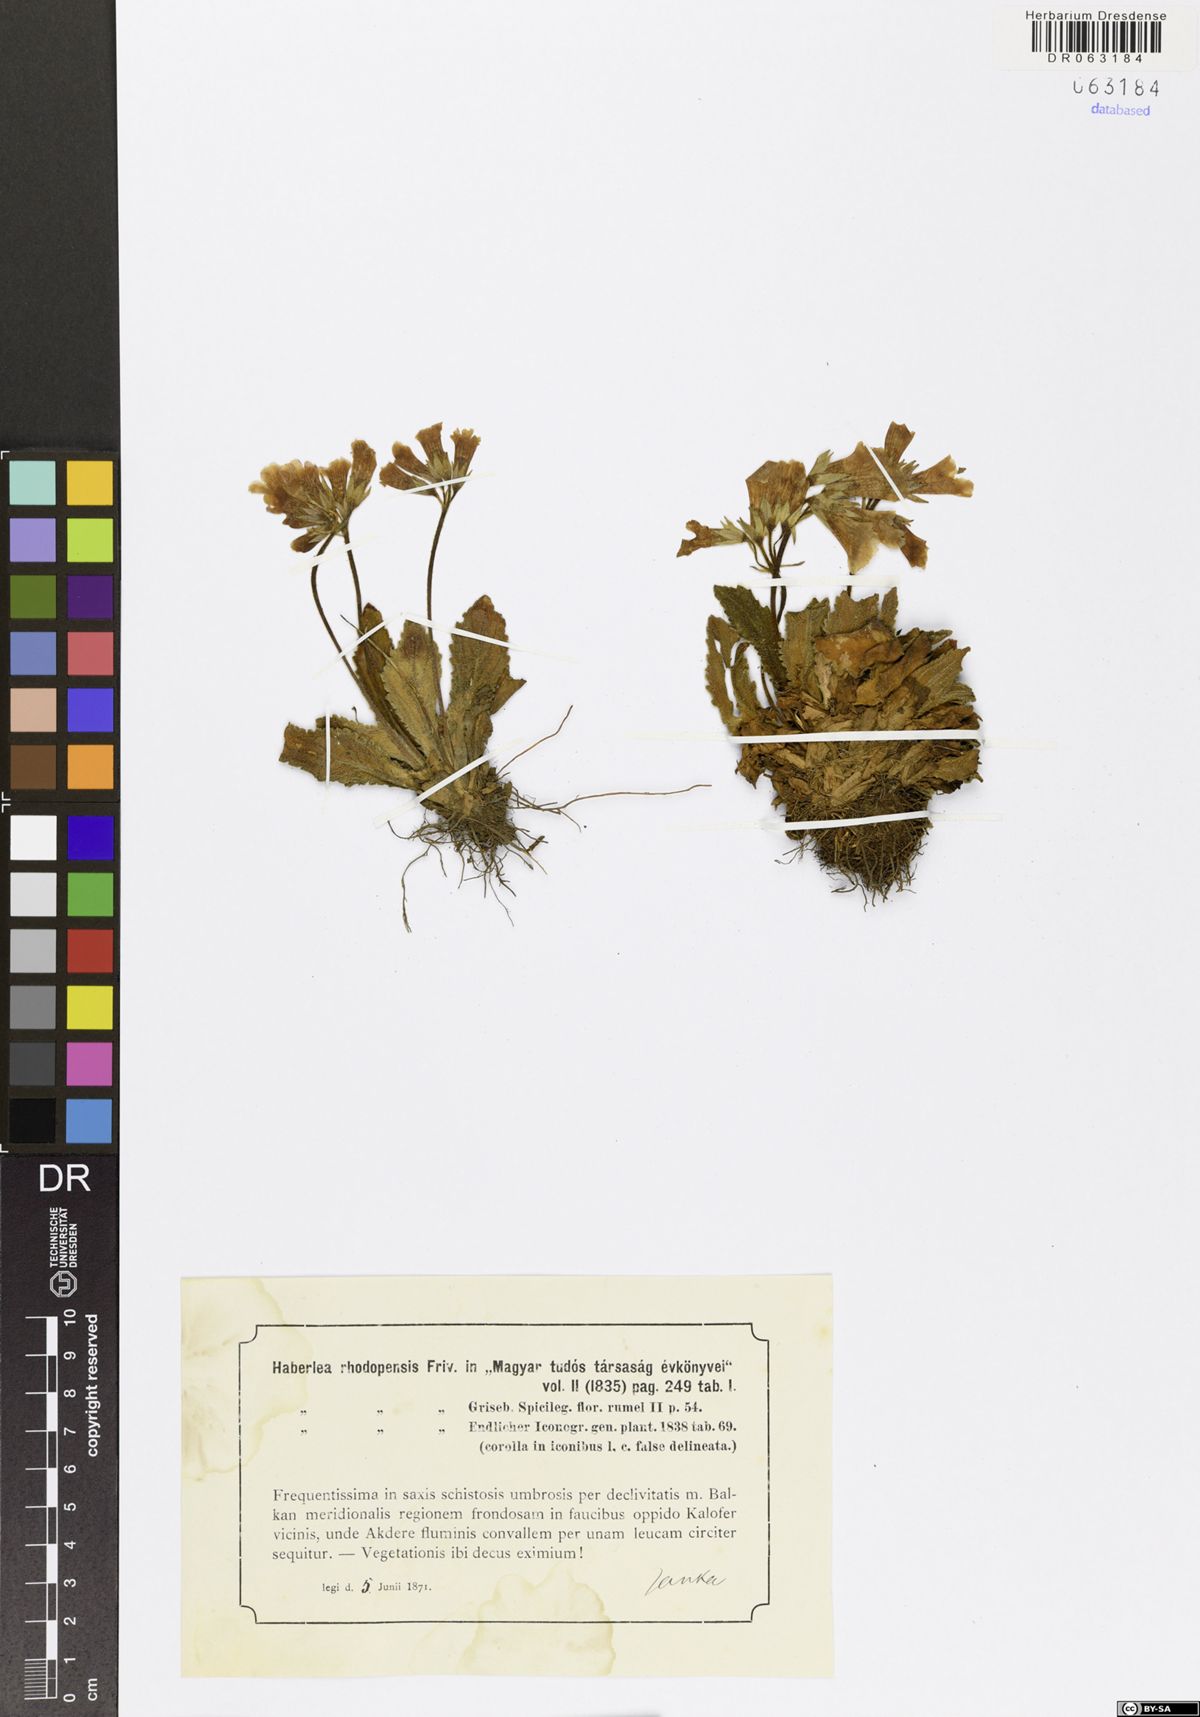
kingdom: Plantae
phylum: Tracheophyta
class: Magnoliopsida
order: Lamiales
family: Gesneriaceae
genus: Haberlea
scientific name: Haberlea rhodopensis
